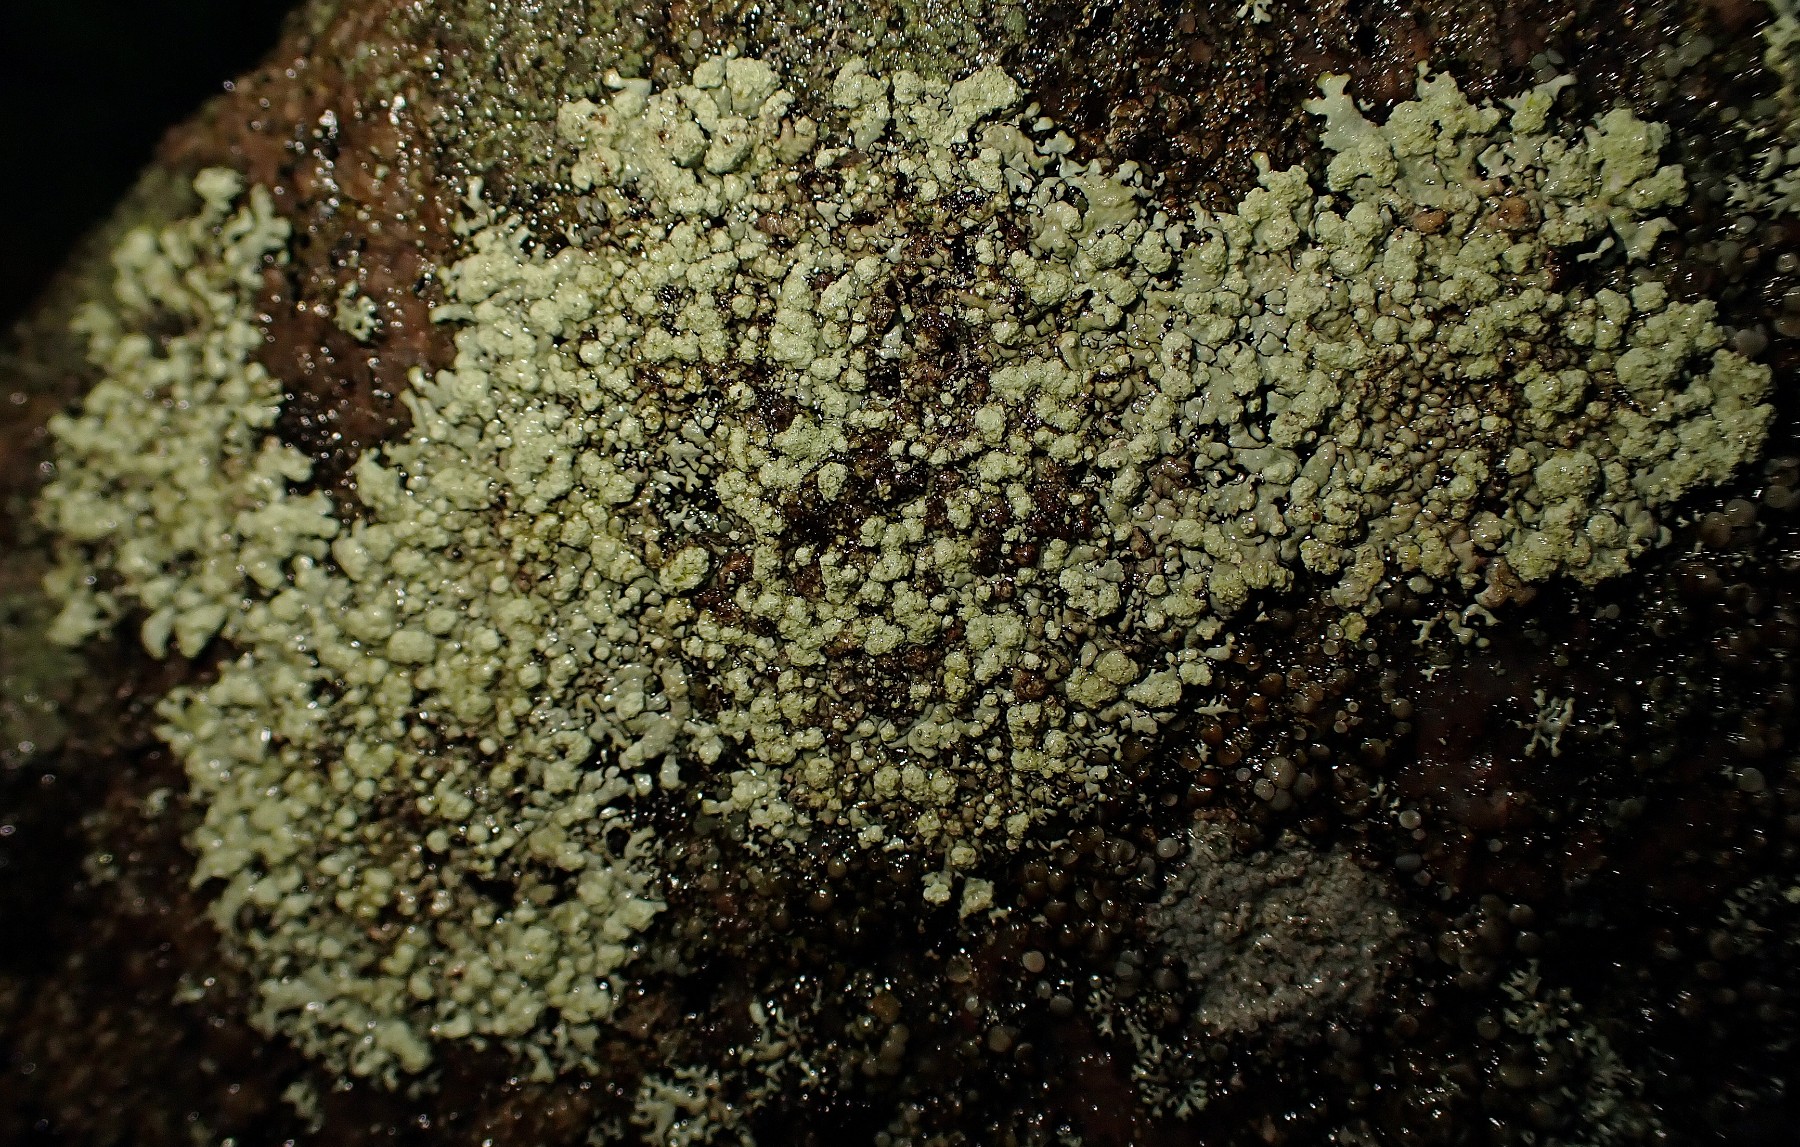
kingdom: Fungi
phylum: Ascomycota
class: Lecanoromycetes
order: Lecanorales
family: Parmeliaceae
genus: Xanthoparmelia
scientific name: Xanthoparmelia mougeotii
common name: liden skållav
